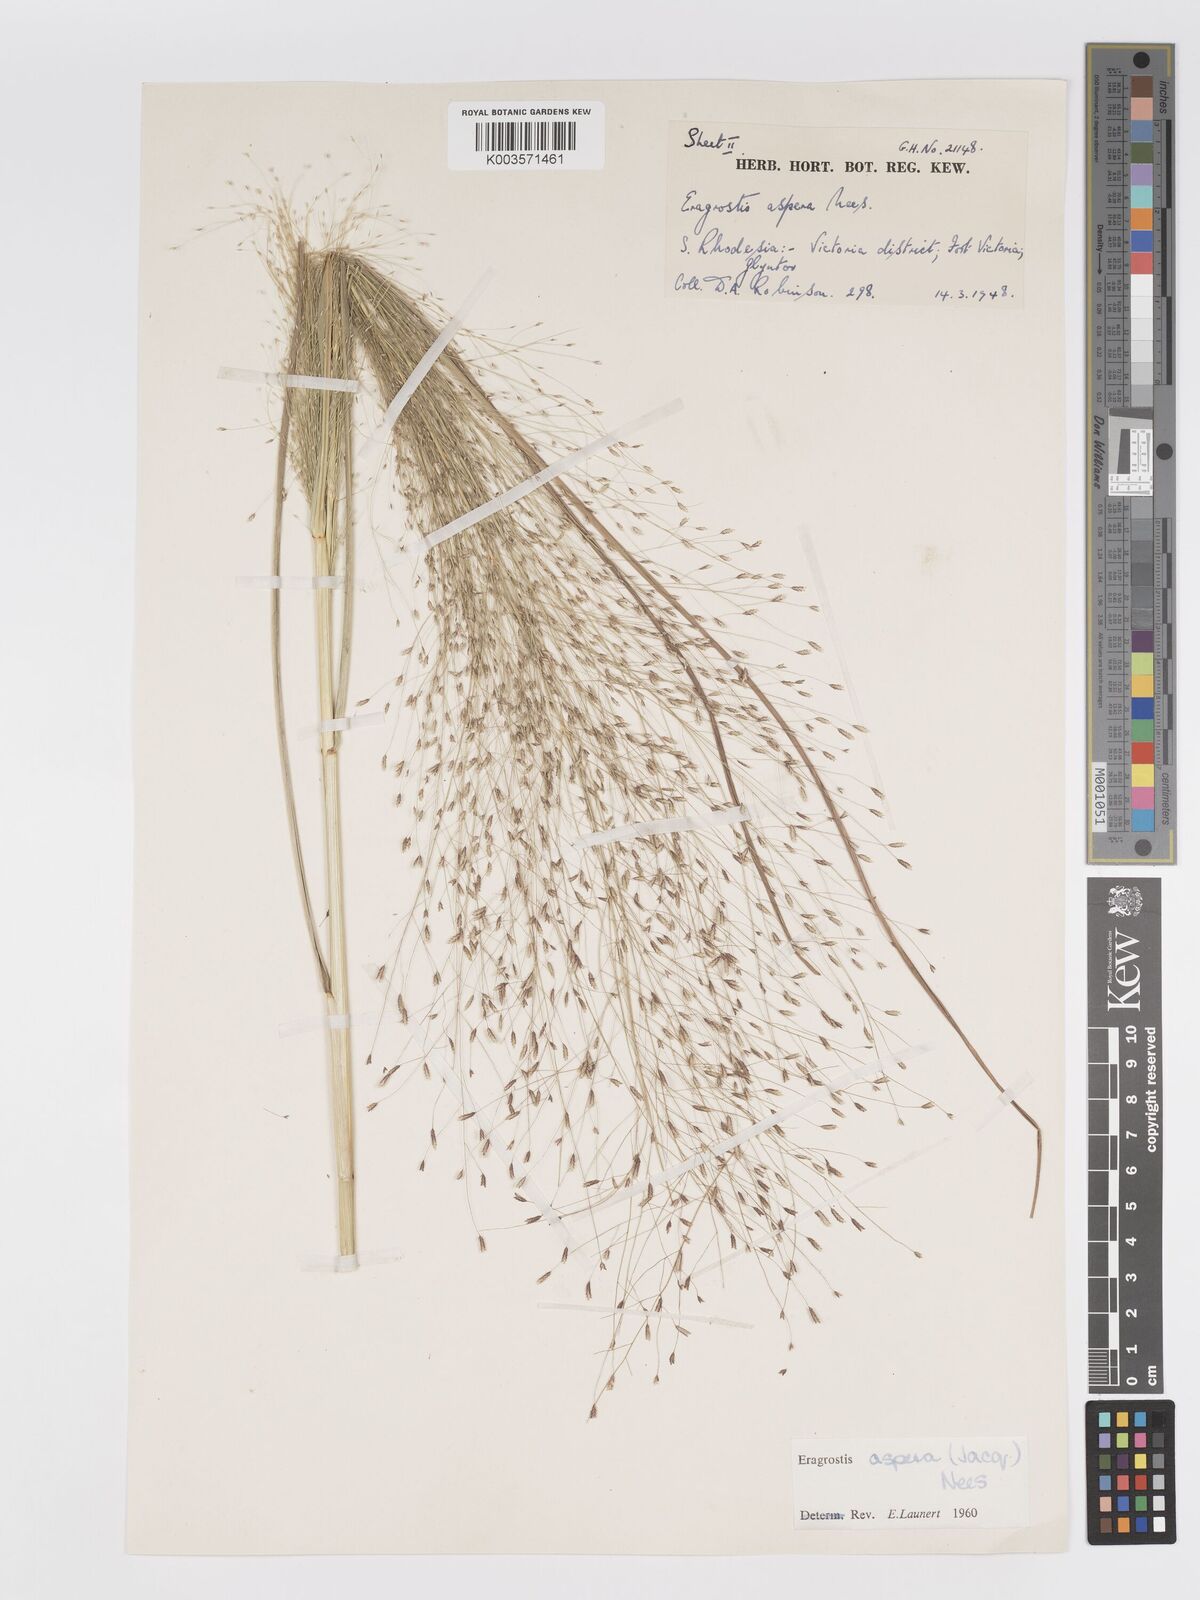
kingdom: Plantae
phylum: Tracheophyta
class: Liliopsida
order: Poales
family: Poaceae
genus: Eragrostis
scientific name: Eragrostis aspera
